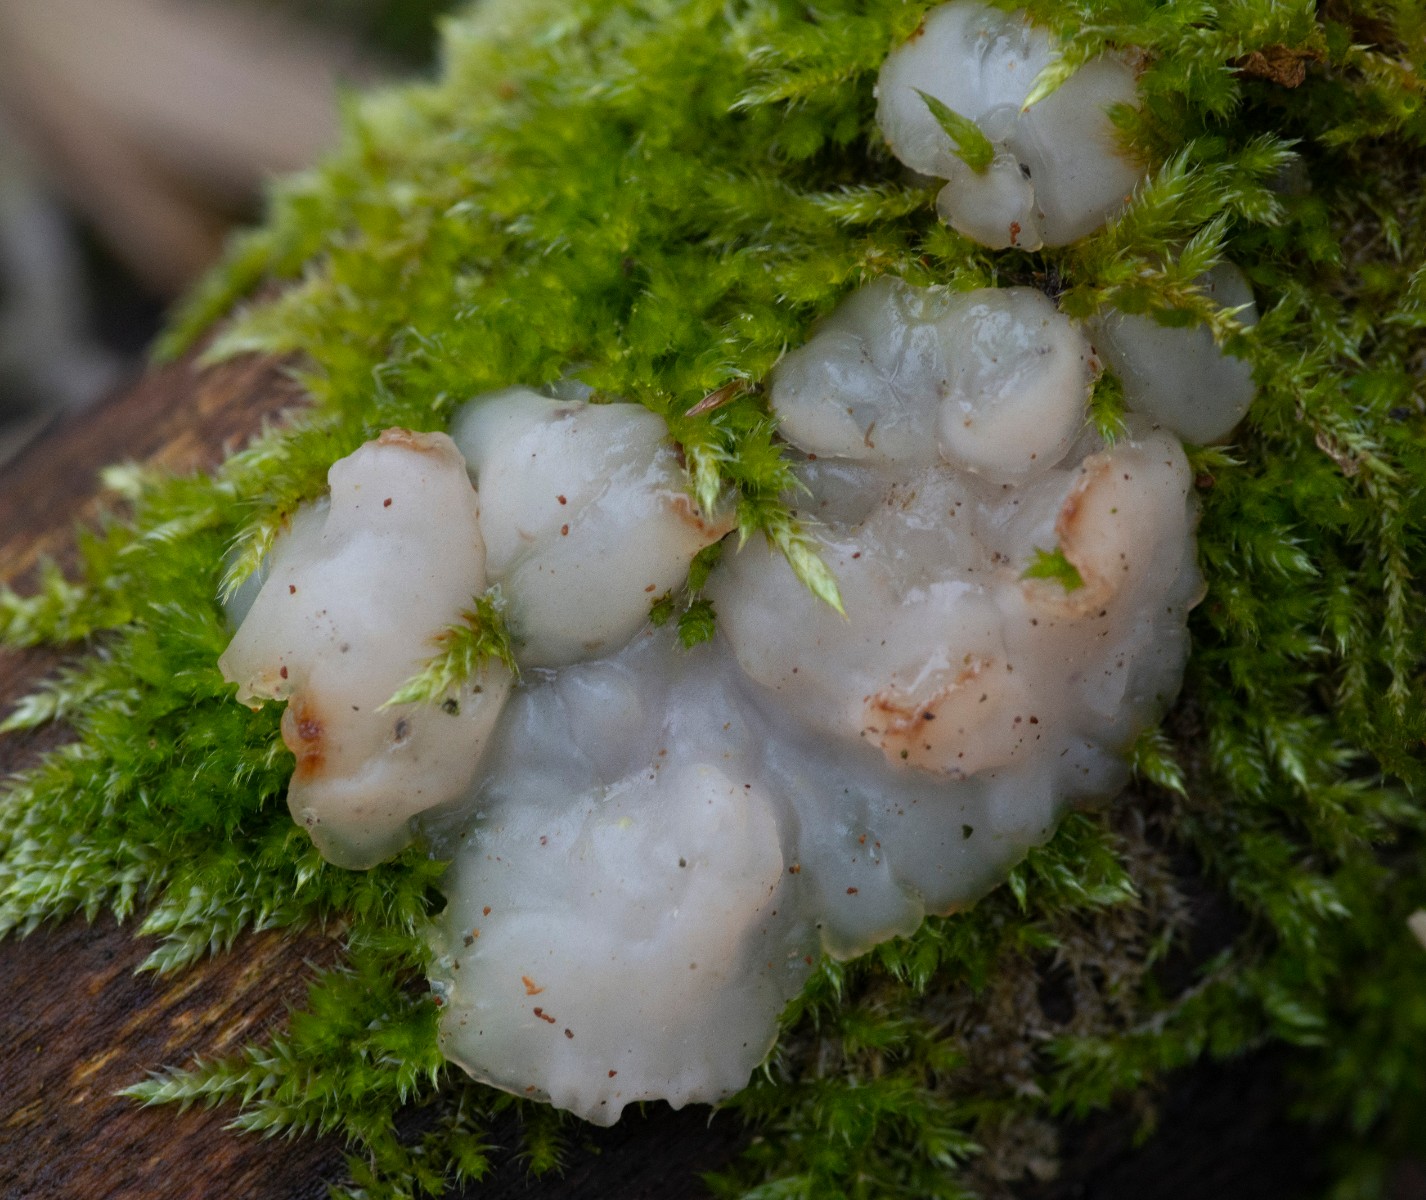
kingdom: Fungi
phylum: Basidiomycota
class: Agaricomycetes
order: Auriculariales
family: Auriculariaceae
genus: Exidia
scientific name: Exidia thuretiana
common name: hvidlig bævretop
